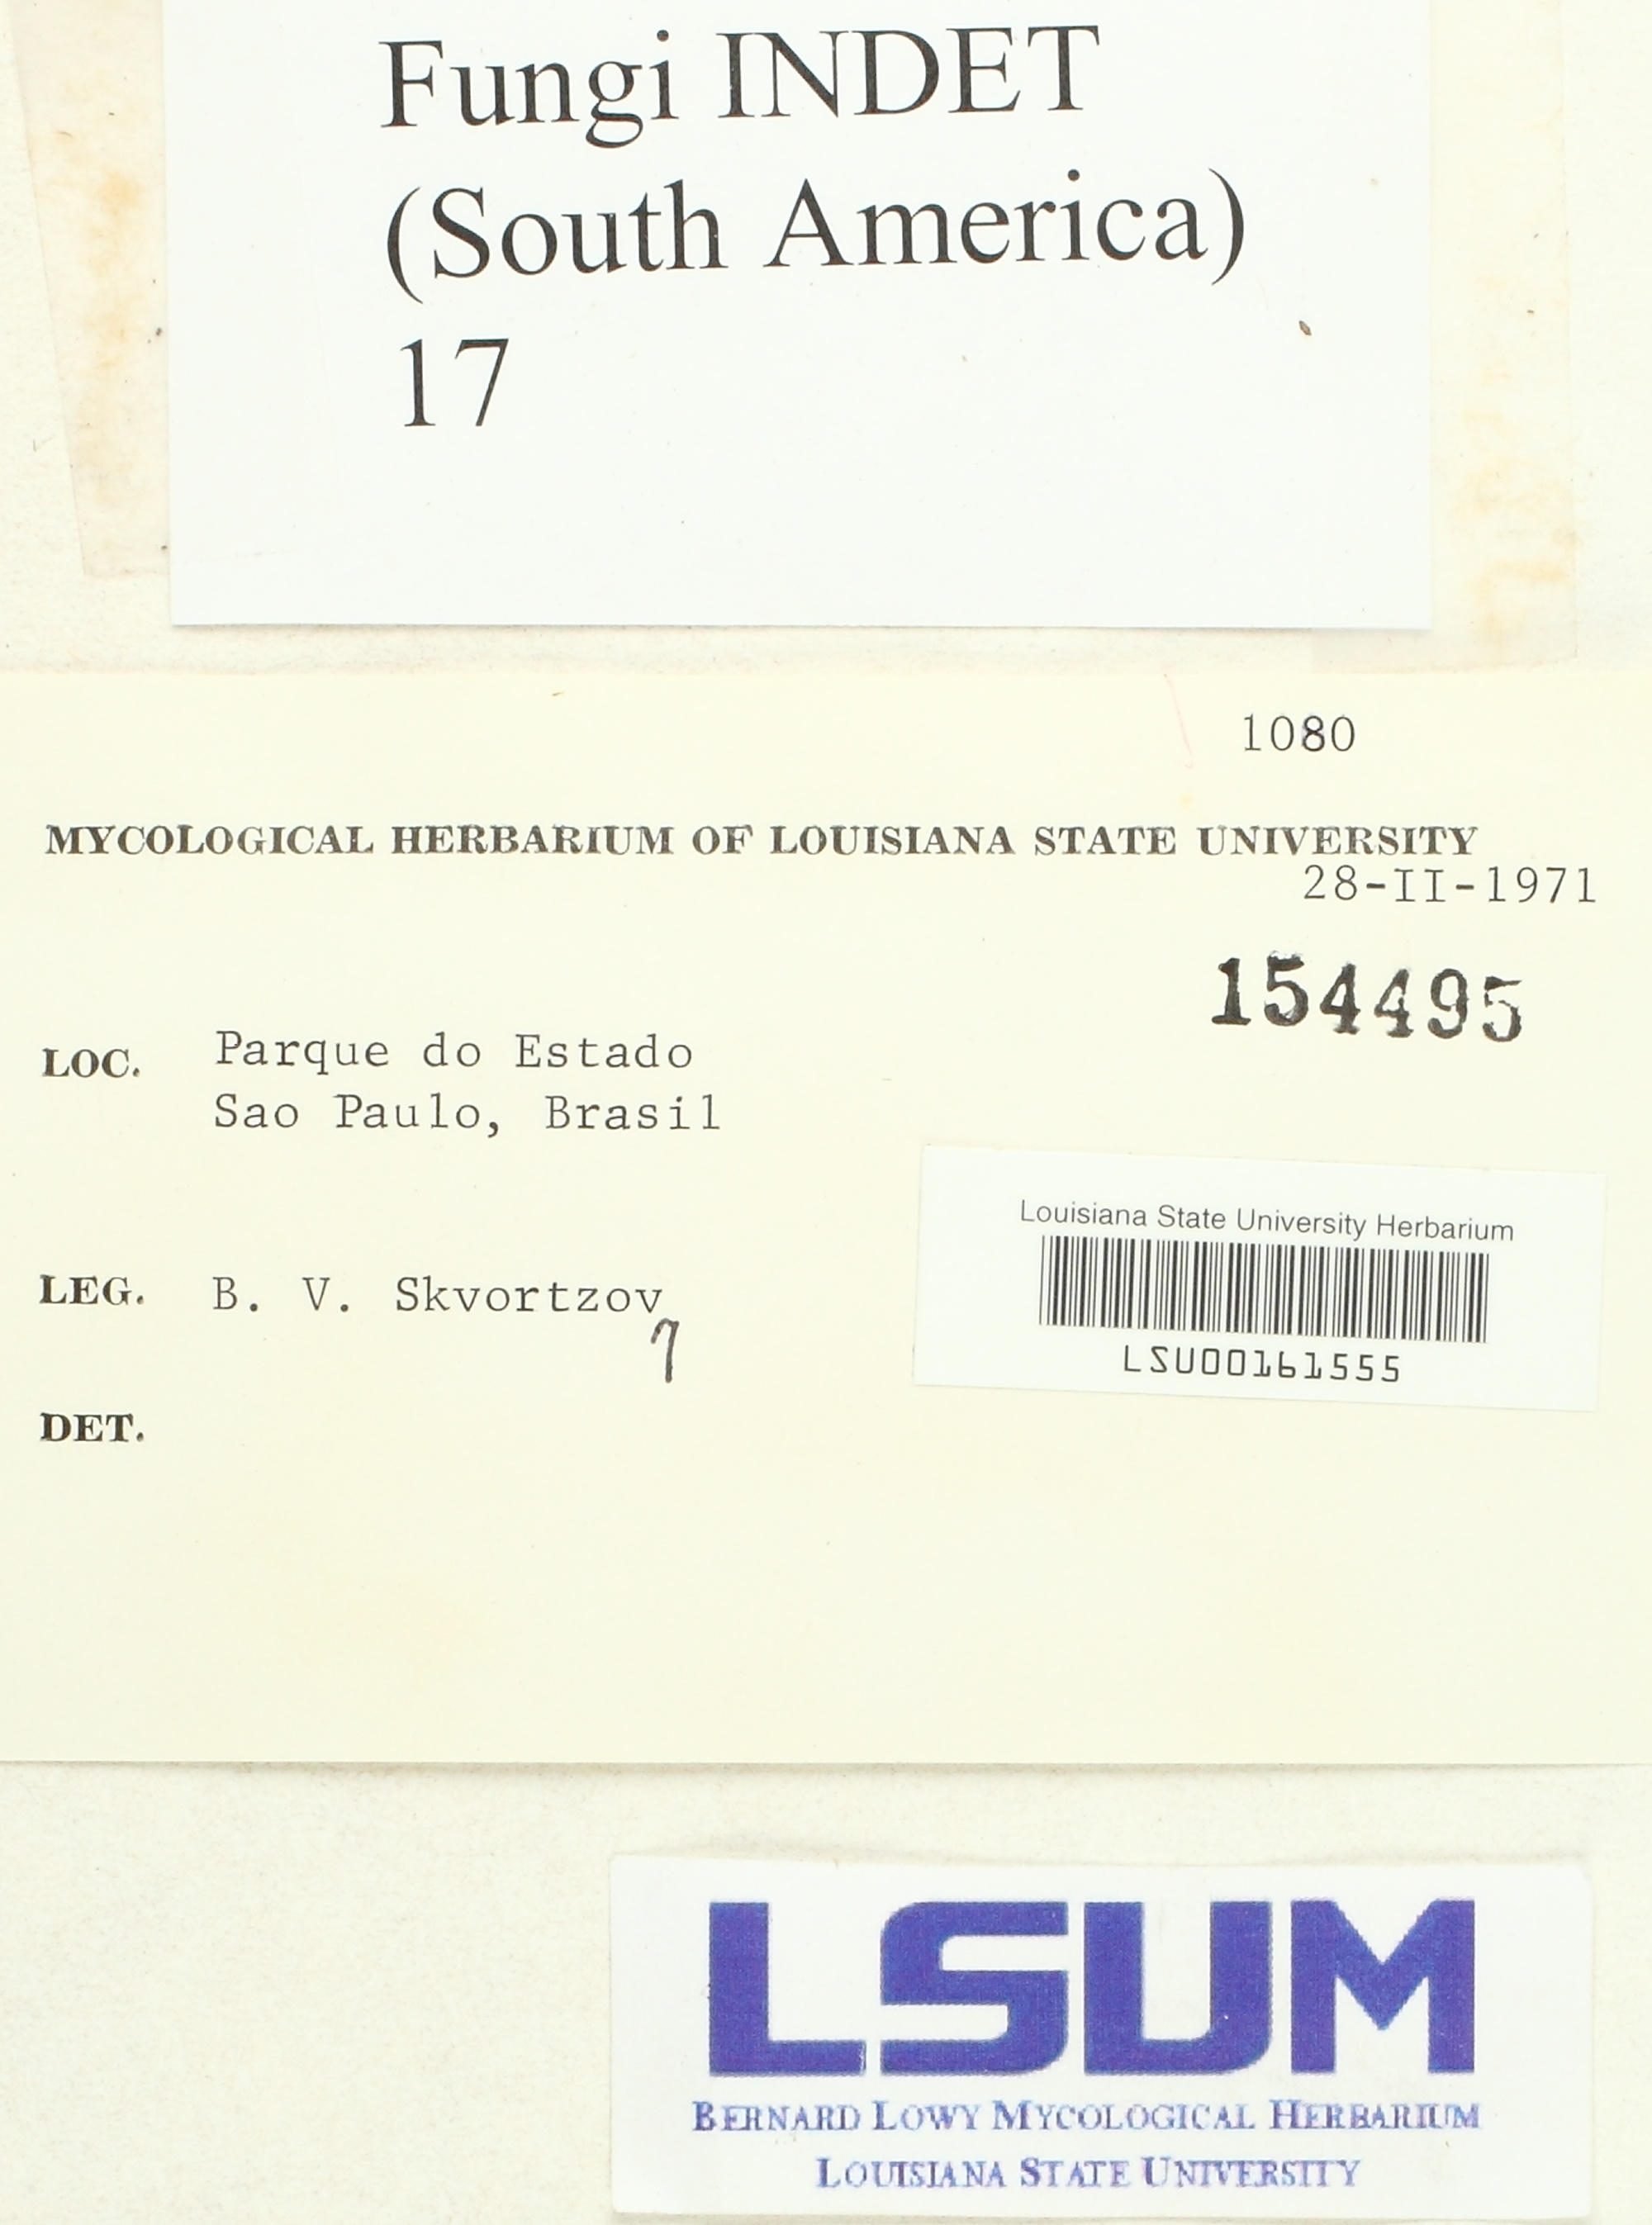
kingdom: Fungi
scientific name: Fungi
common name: Fungi
